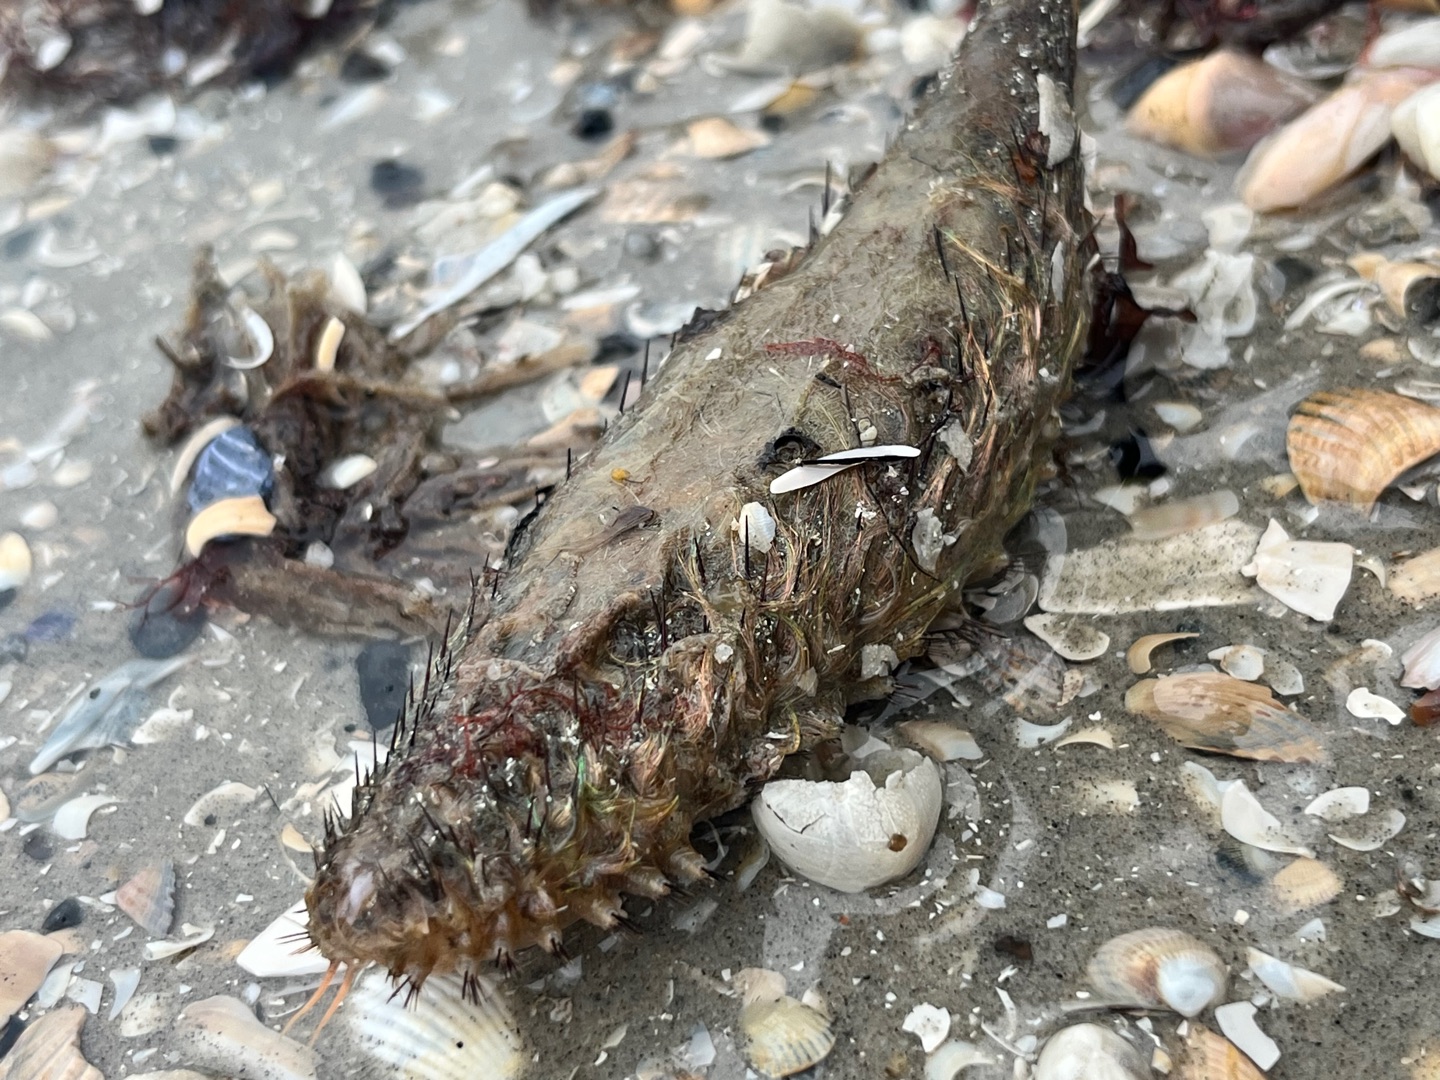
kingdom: Animalia
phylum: Annelida
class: Polychaeta
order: Phyllodocida
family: Aphroditidae
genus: Aphrodita
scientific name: Aphrodita aculeata
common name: Guldmus
